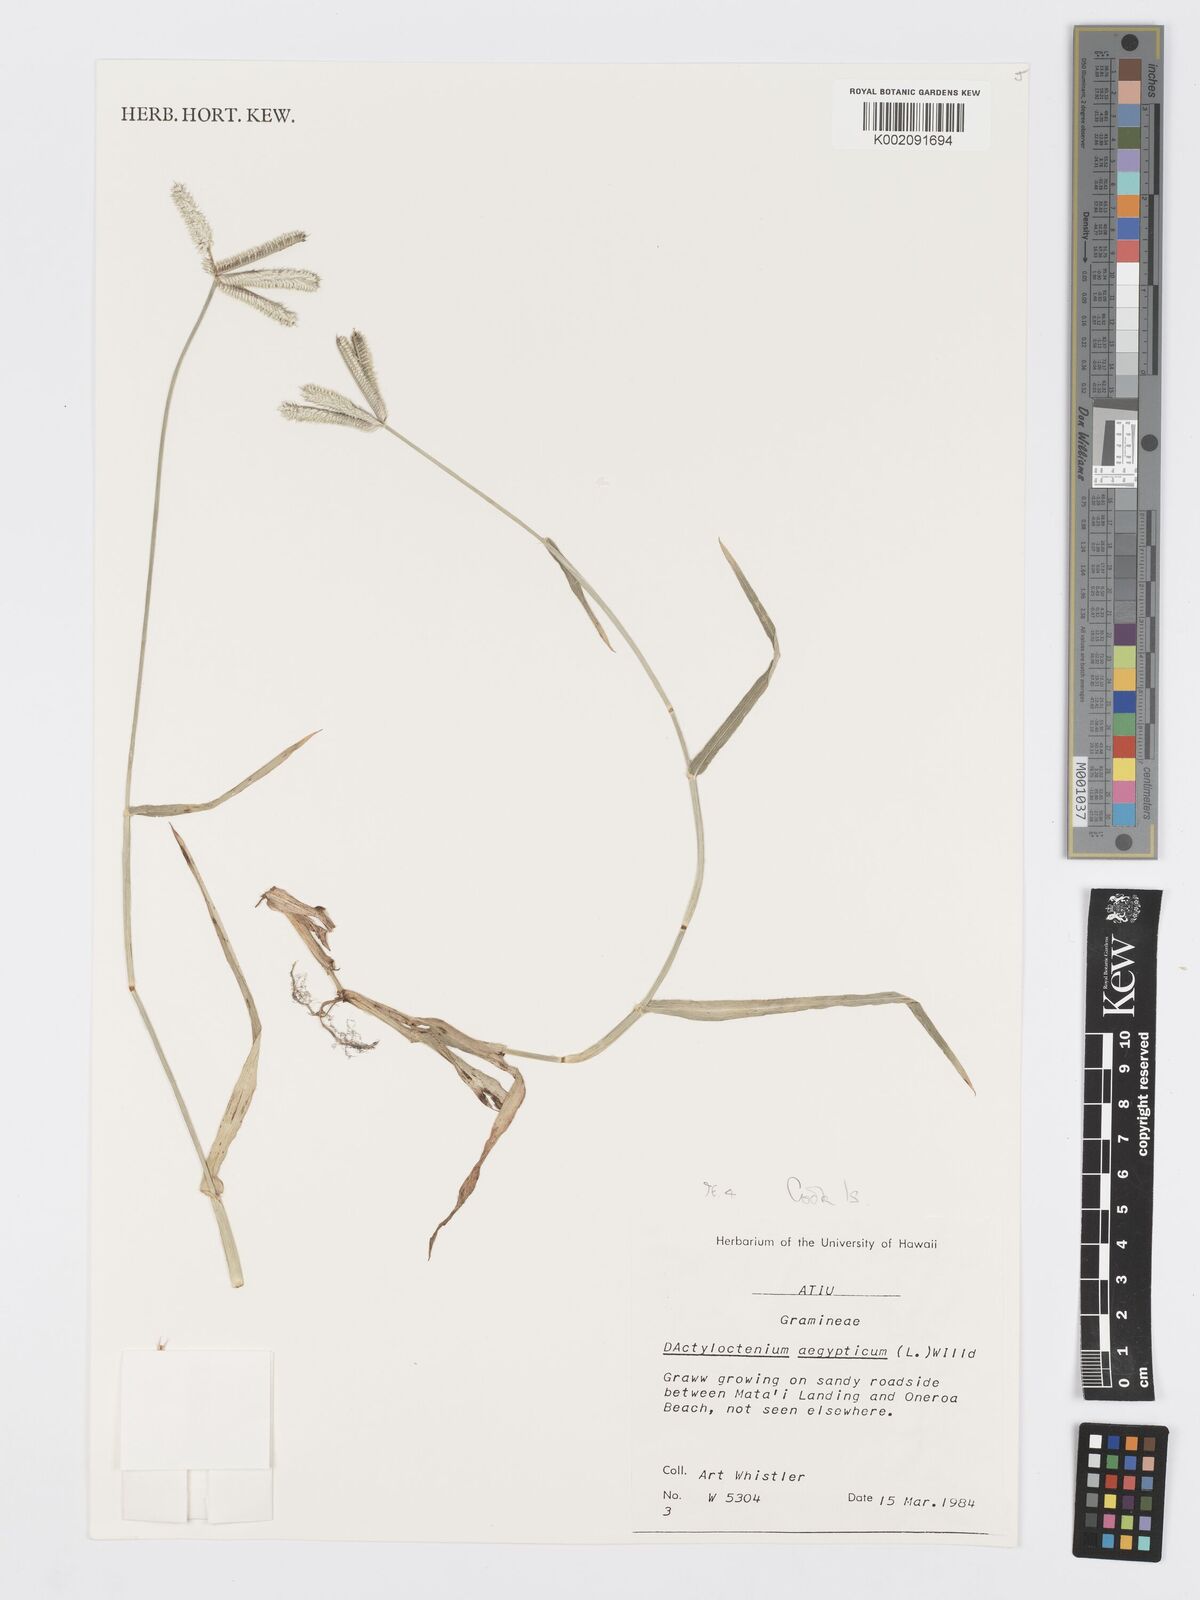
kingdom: Plantae
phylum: Tracheophyta
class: Liliopsida
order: Poales
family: Poaceae
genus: Dactyloctenium
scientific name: Dactyloctenium aegyptium
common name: Egyptian grass
